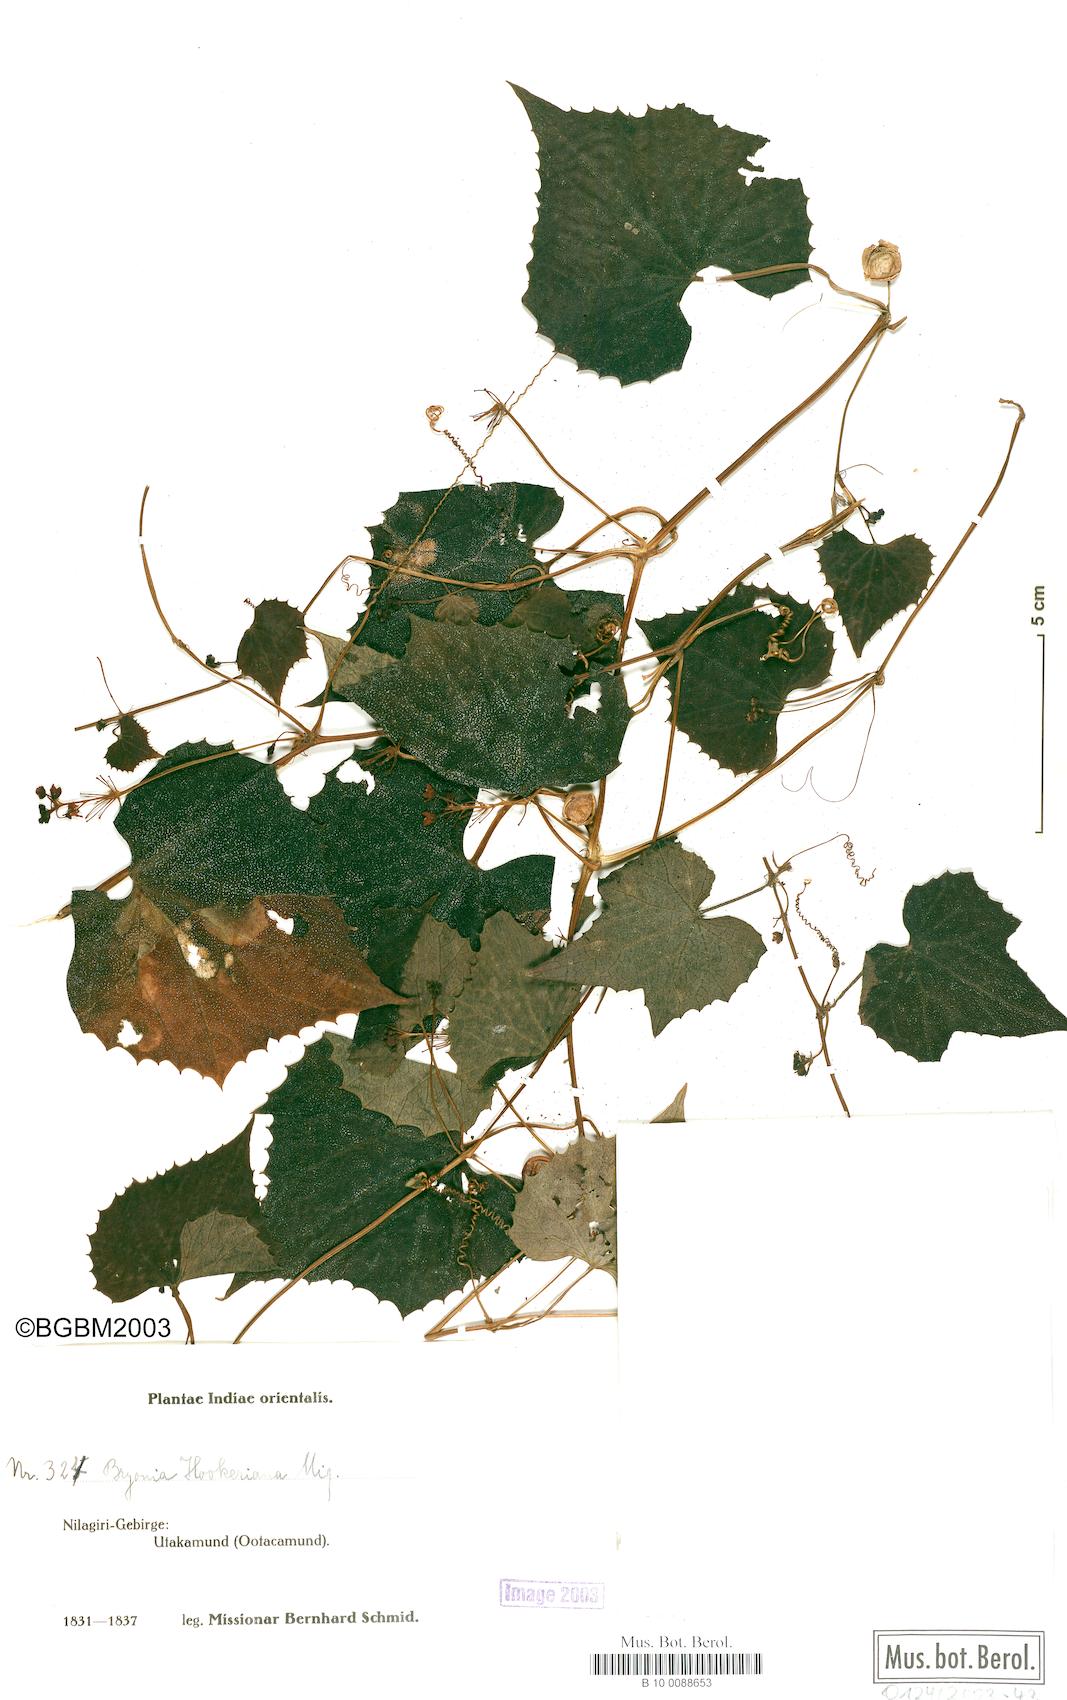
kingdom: Plantae
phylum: Tracheophyta
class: Magnoliopsida
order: Cucurbitales
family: Cucurbitaceae
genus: Zehneria
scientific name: Zehneria scabra
